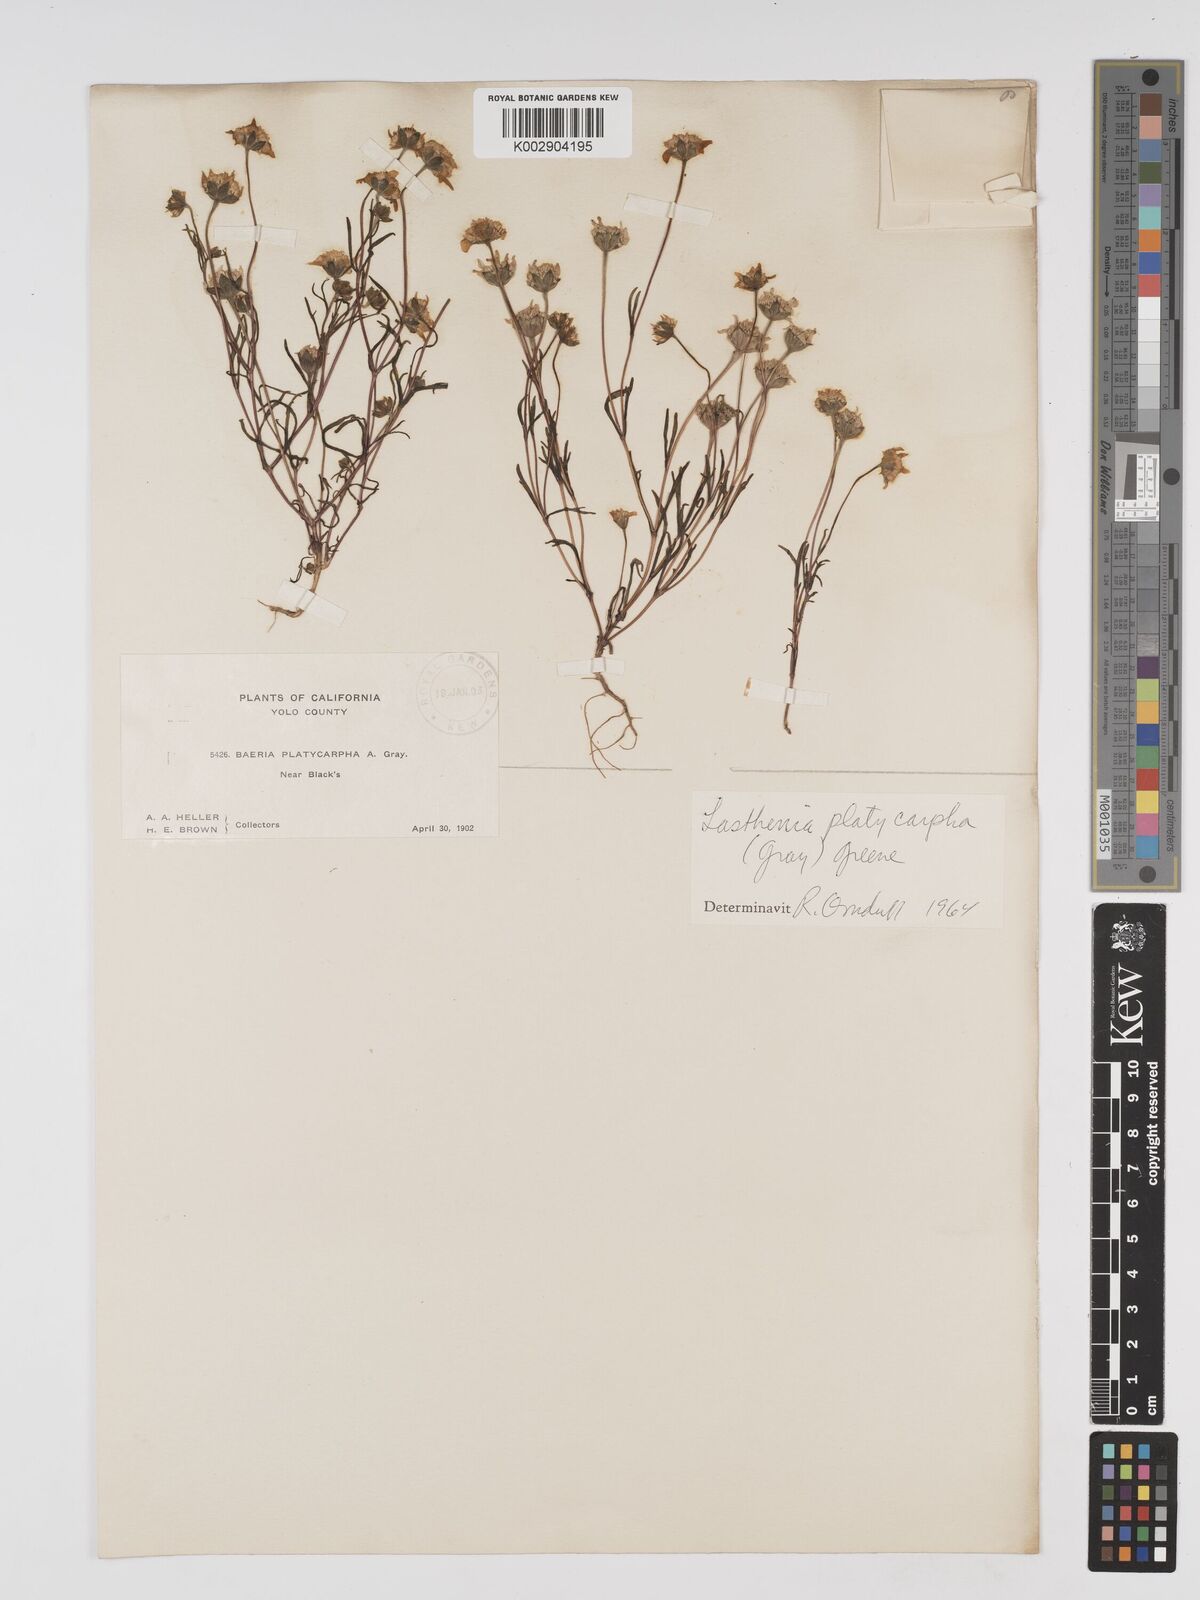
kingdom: Plantae
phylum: Tracheophyta
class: Magnoliopsida
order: Asterales
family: Asteraceae
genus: Lasthenia
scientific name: Lasthenia platycarpha
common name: Alkali goldfields
